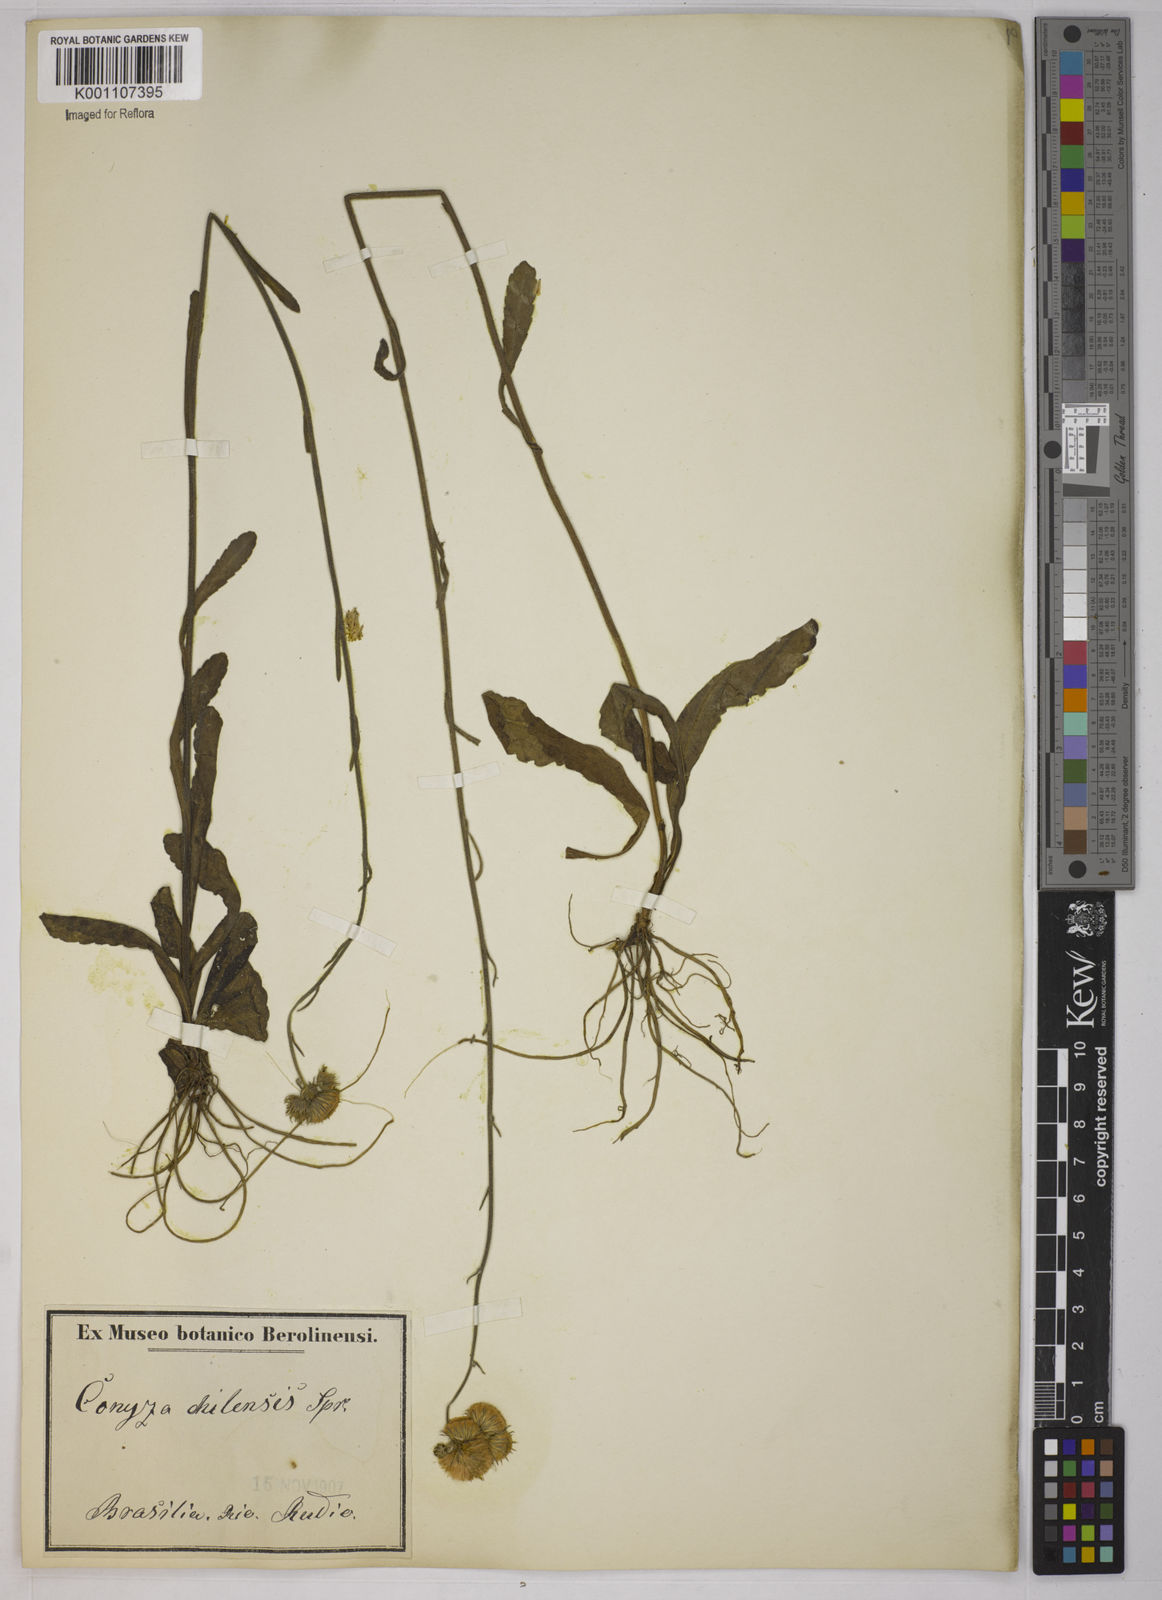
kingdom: Plantae
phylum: Tracheophyta
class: Magnoliopsida
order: Asterales
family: Asteraceae
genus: Conyza
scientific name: Conyza
